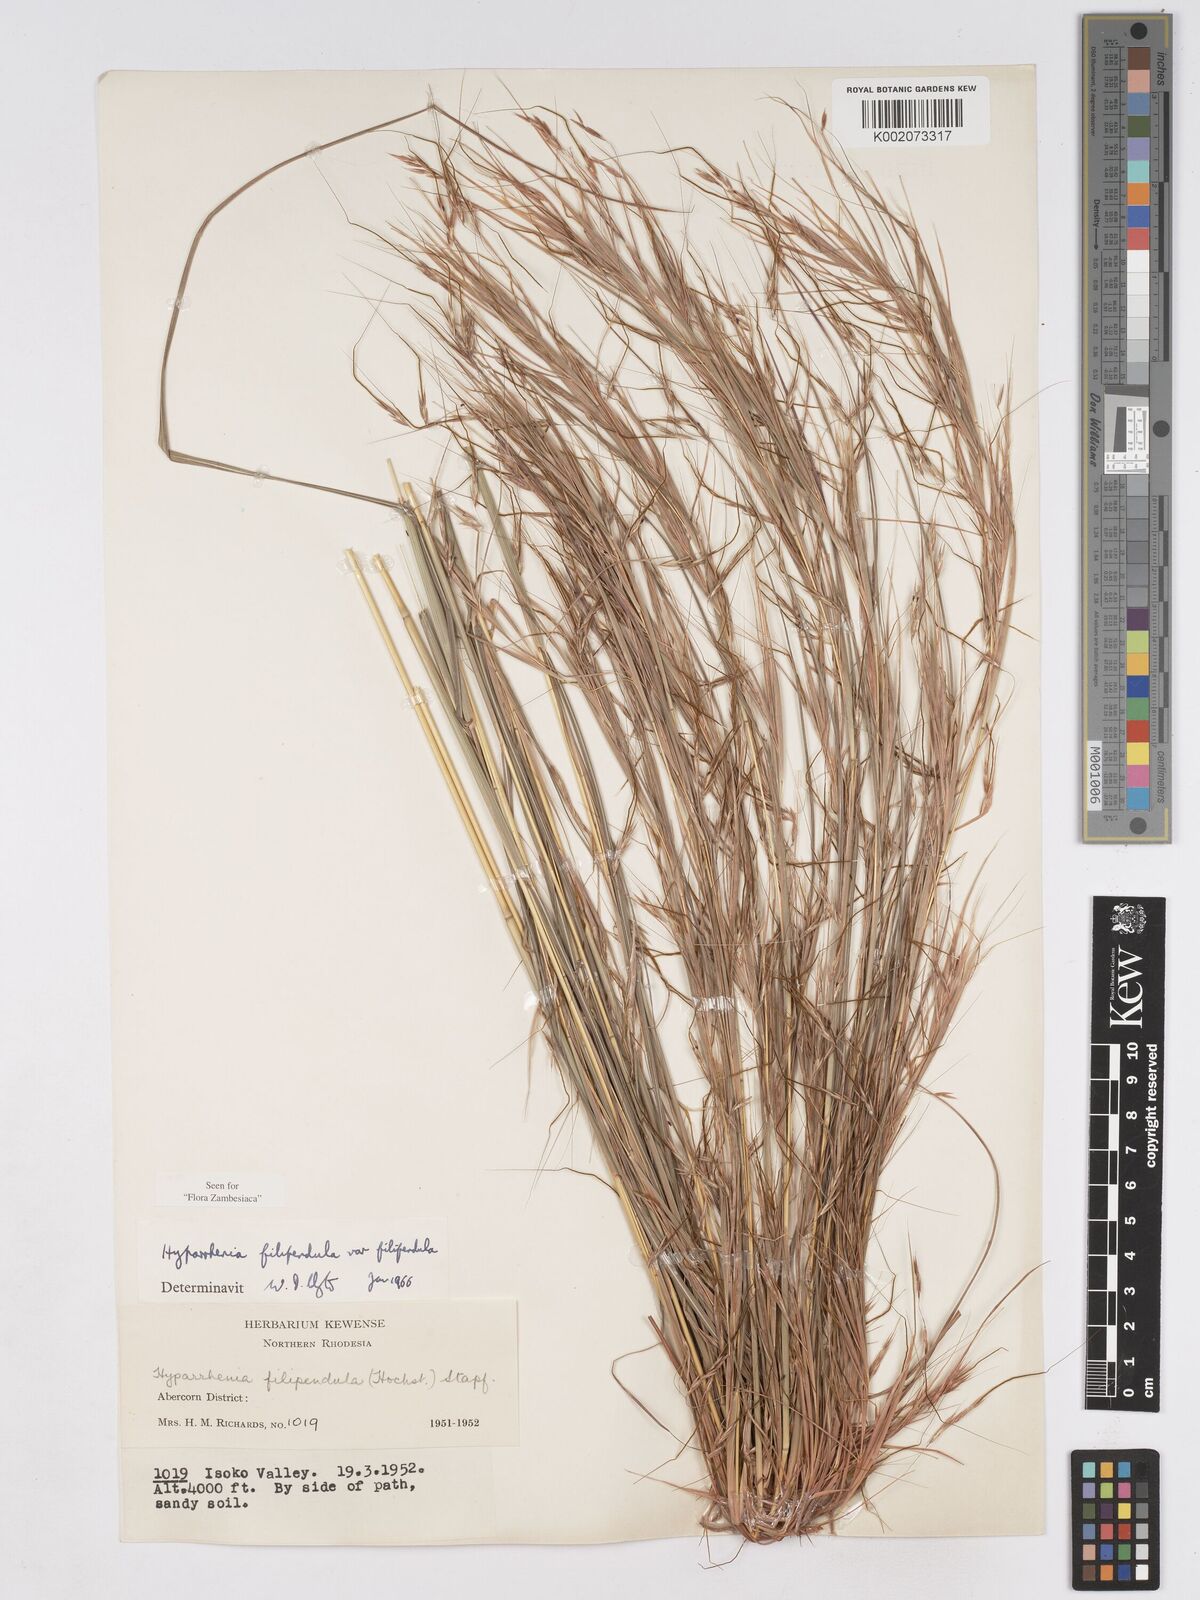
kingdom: Plantae
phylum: Tracheophyta
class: Liliopsida
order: Poales
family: Poaceae
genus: Hyparrhenia
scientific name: Hyparrhenia filipendula
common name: Tambookie grass
